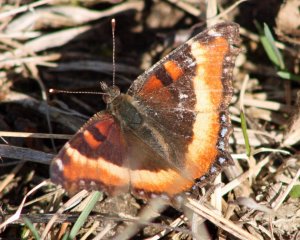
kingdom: Animalia
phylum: Arthropoda
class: Insecta
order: Lepidoptera
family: Nymphalidae
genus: Aglais
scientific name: Aglais milberti
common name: Milbert's Tortoiseshell
